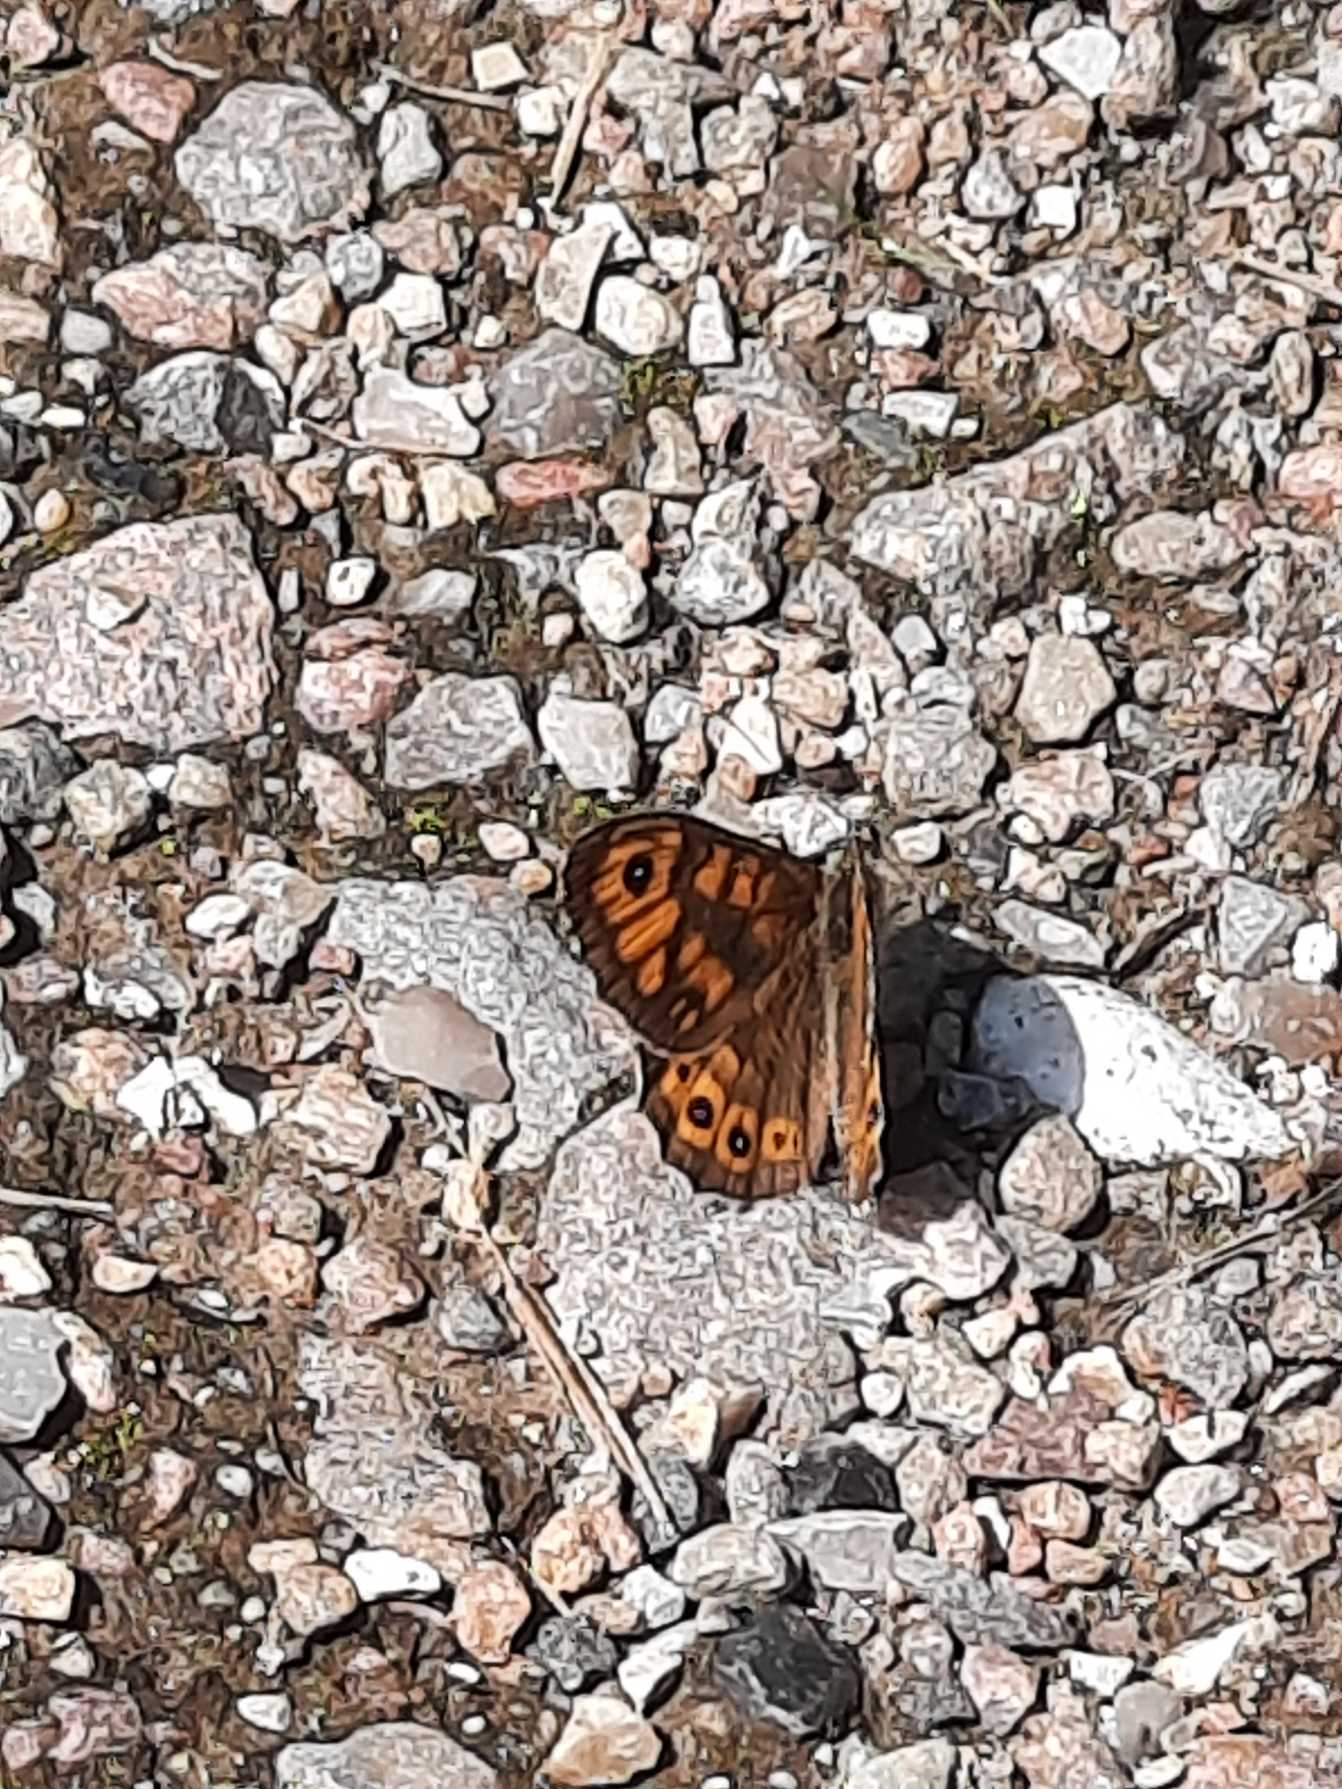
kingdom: Animalia
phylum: Arthropoda
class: Insecta
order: Lepidoptera
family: Nymphalidae
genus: Pararge
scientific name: Pararge Lasiommata megera
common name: Vejrandøje
